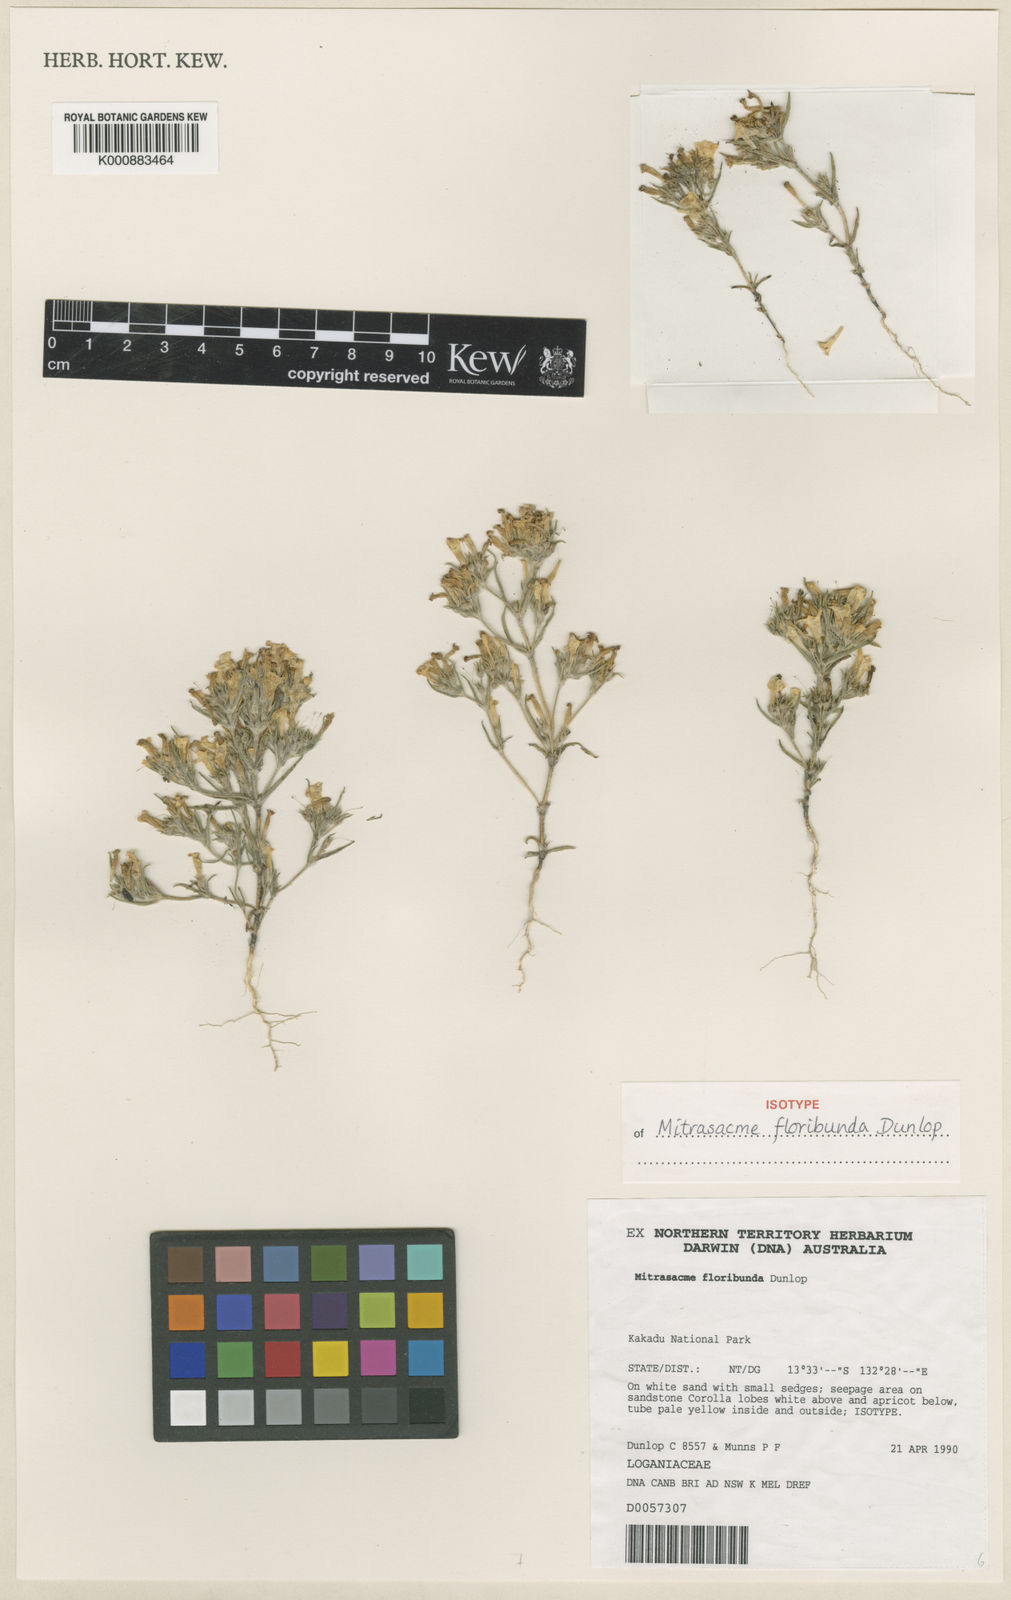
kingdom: Plantae
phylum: Tracheophyta
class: Magnoliopsida
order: Gentianales
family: Loganiaceae
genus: Mitrasacme
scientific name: Mitrasacme floribunda
